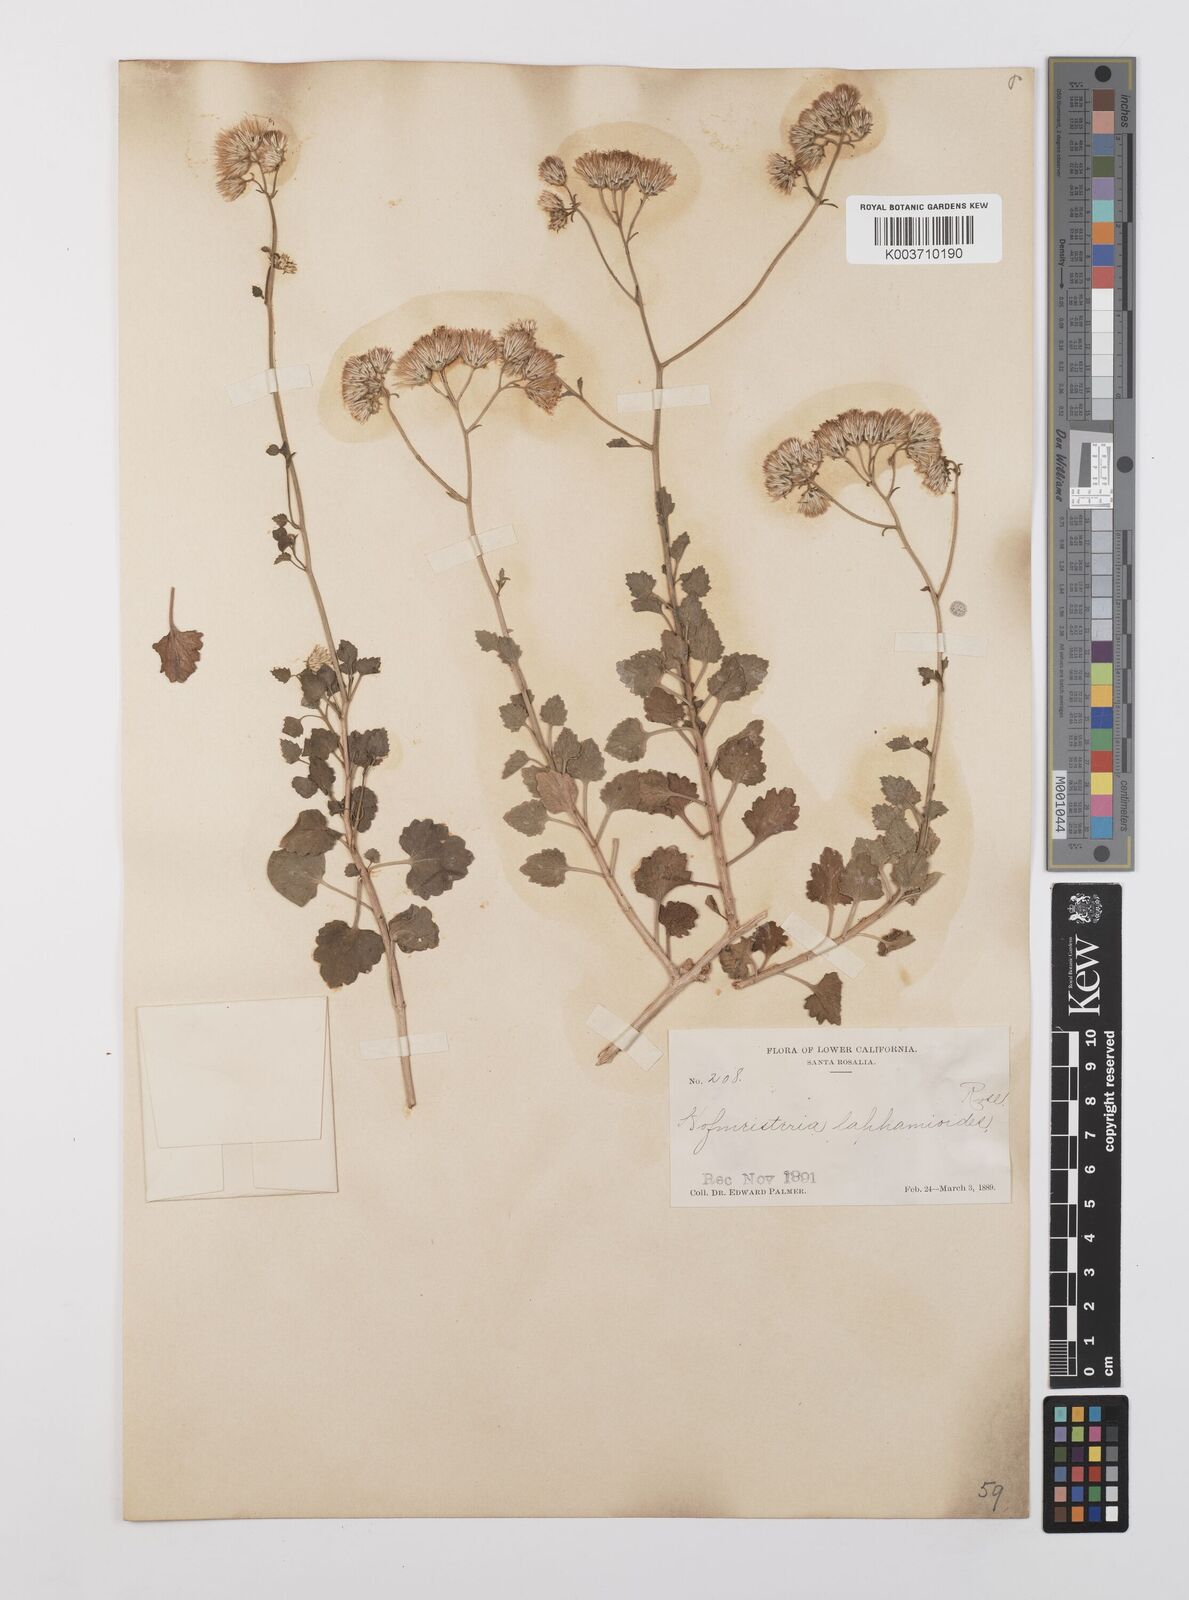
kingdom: Plantae
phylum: Tracheophyta
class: Magnoliopsida
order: Asterales
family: Asteraceae
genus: Pleurocoronis
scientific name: Pleurocoronis laphamioides
